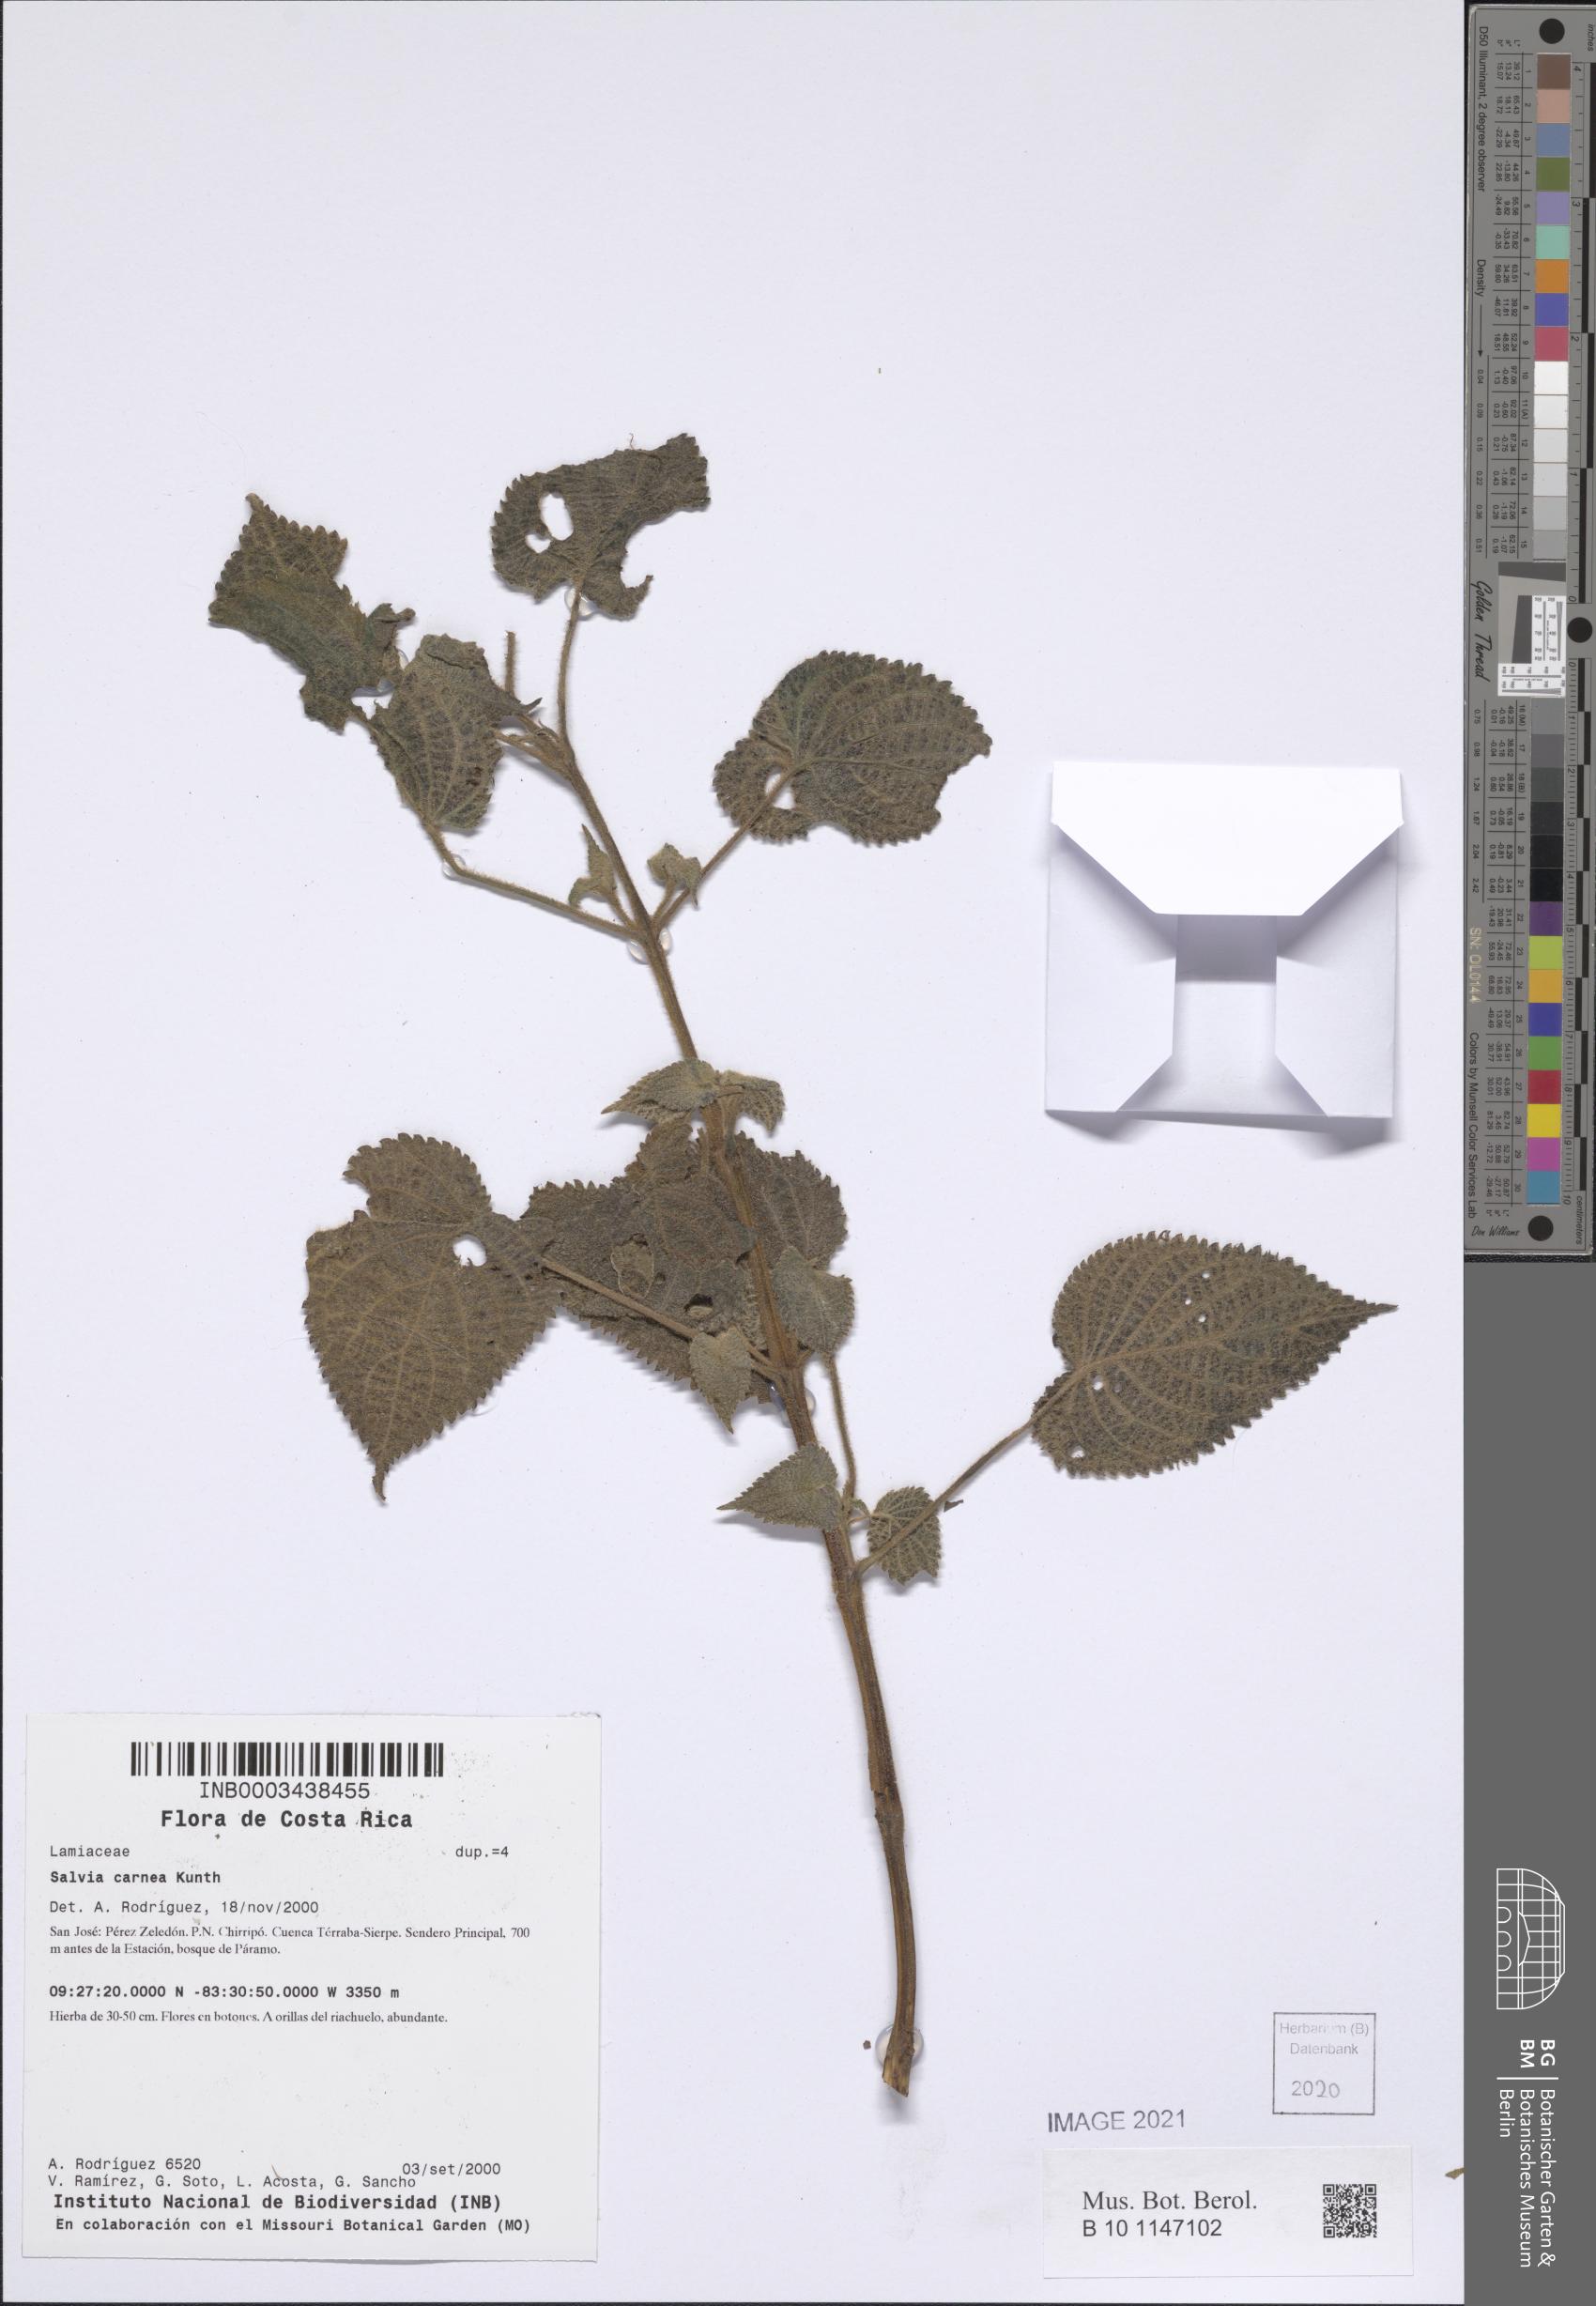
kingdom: Plantae
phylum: Tracheophyta
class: Magnoliopsida
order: Lamiales
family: Lamiaceae
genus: Salvia
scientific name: Salvia carnea
